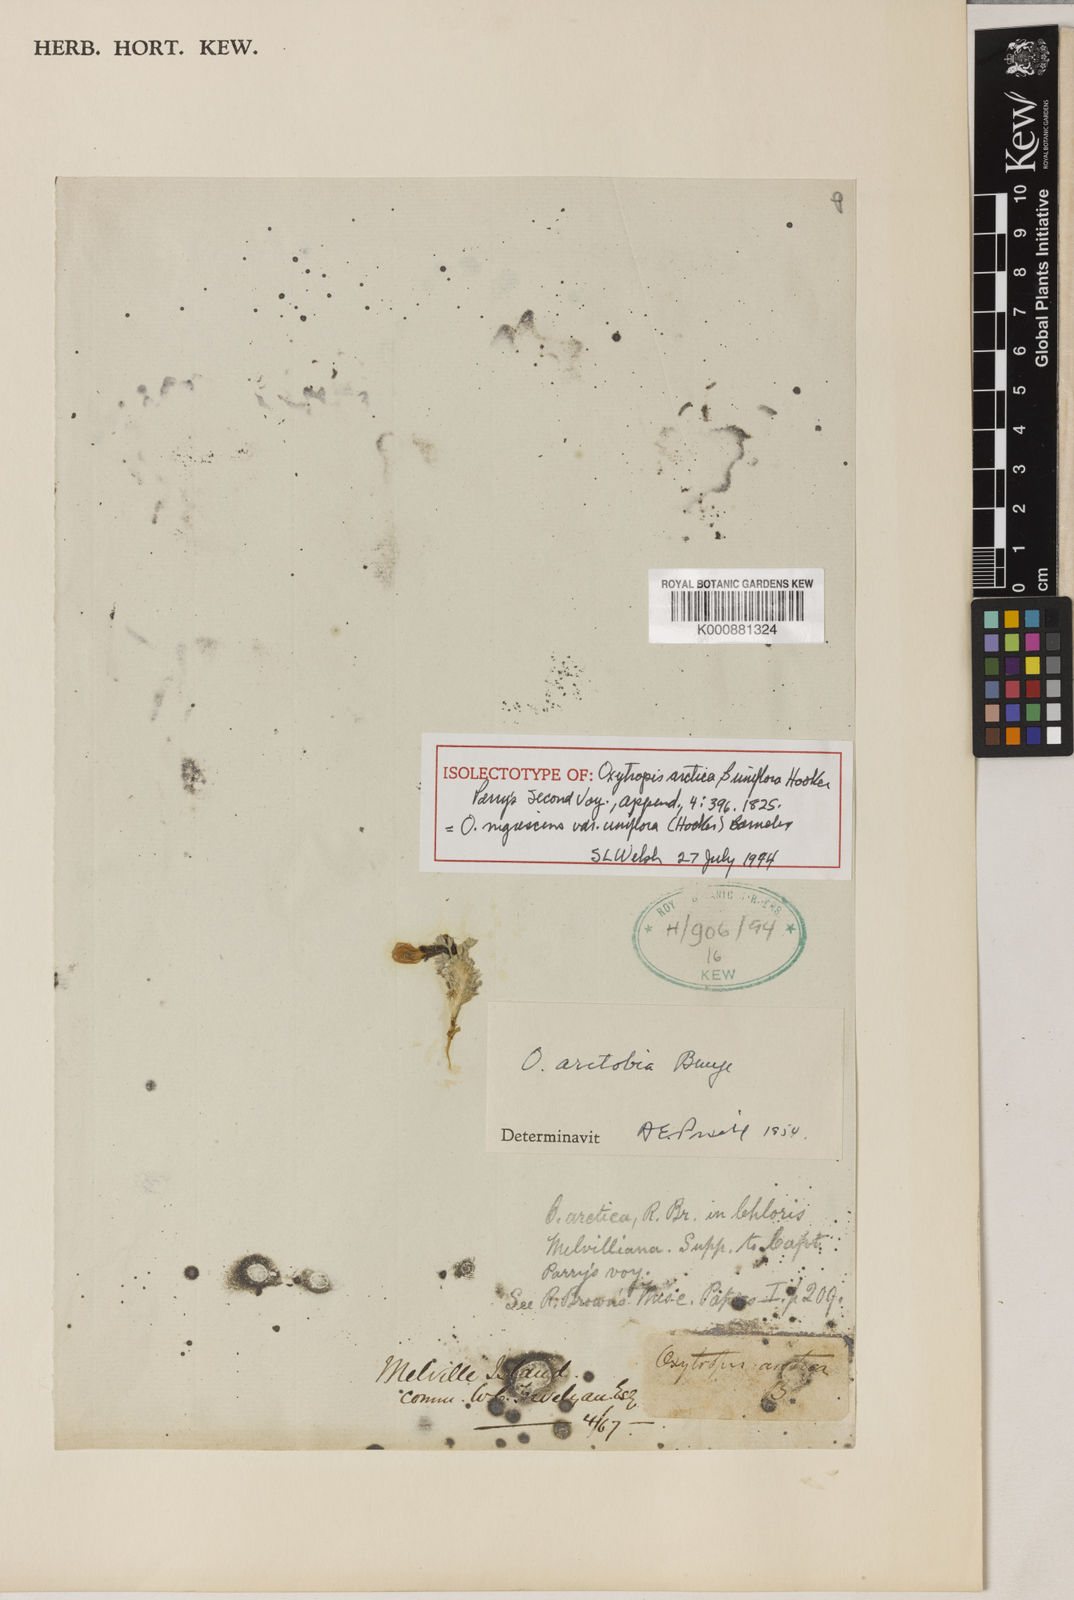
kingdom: Plantae
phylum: Tracheophyta
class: Magnoliopsida
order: Fabales
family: Fabaceae
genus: Oxytropis
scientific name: Oxytropis arctica
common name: Arctic locoweed
